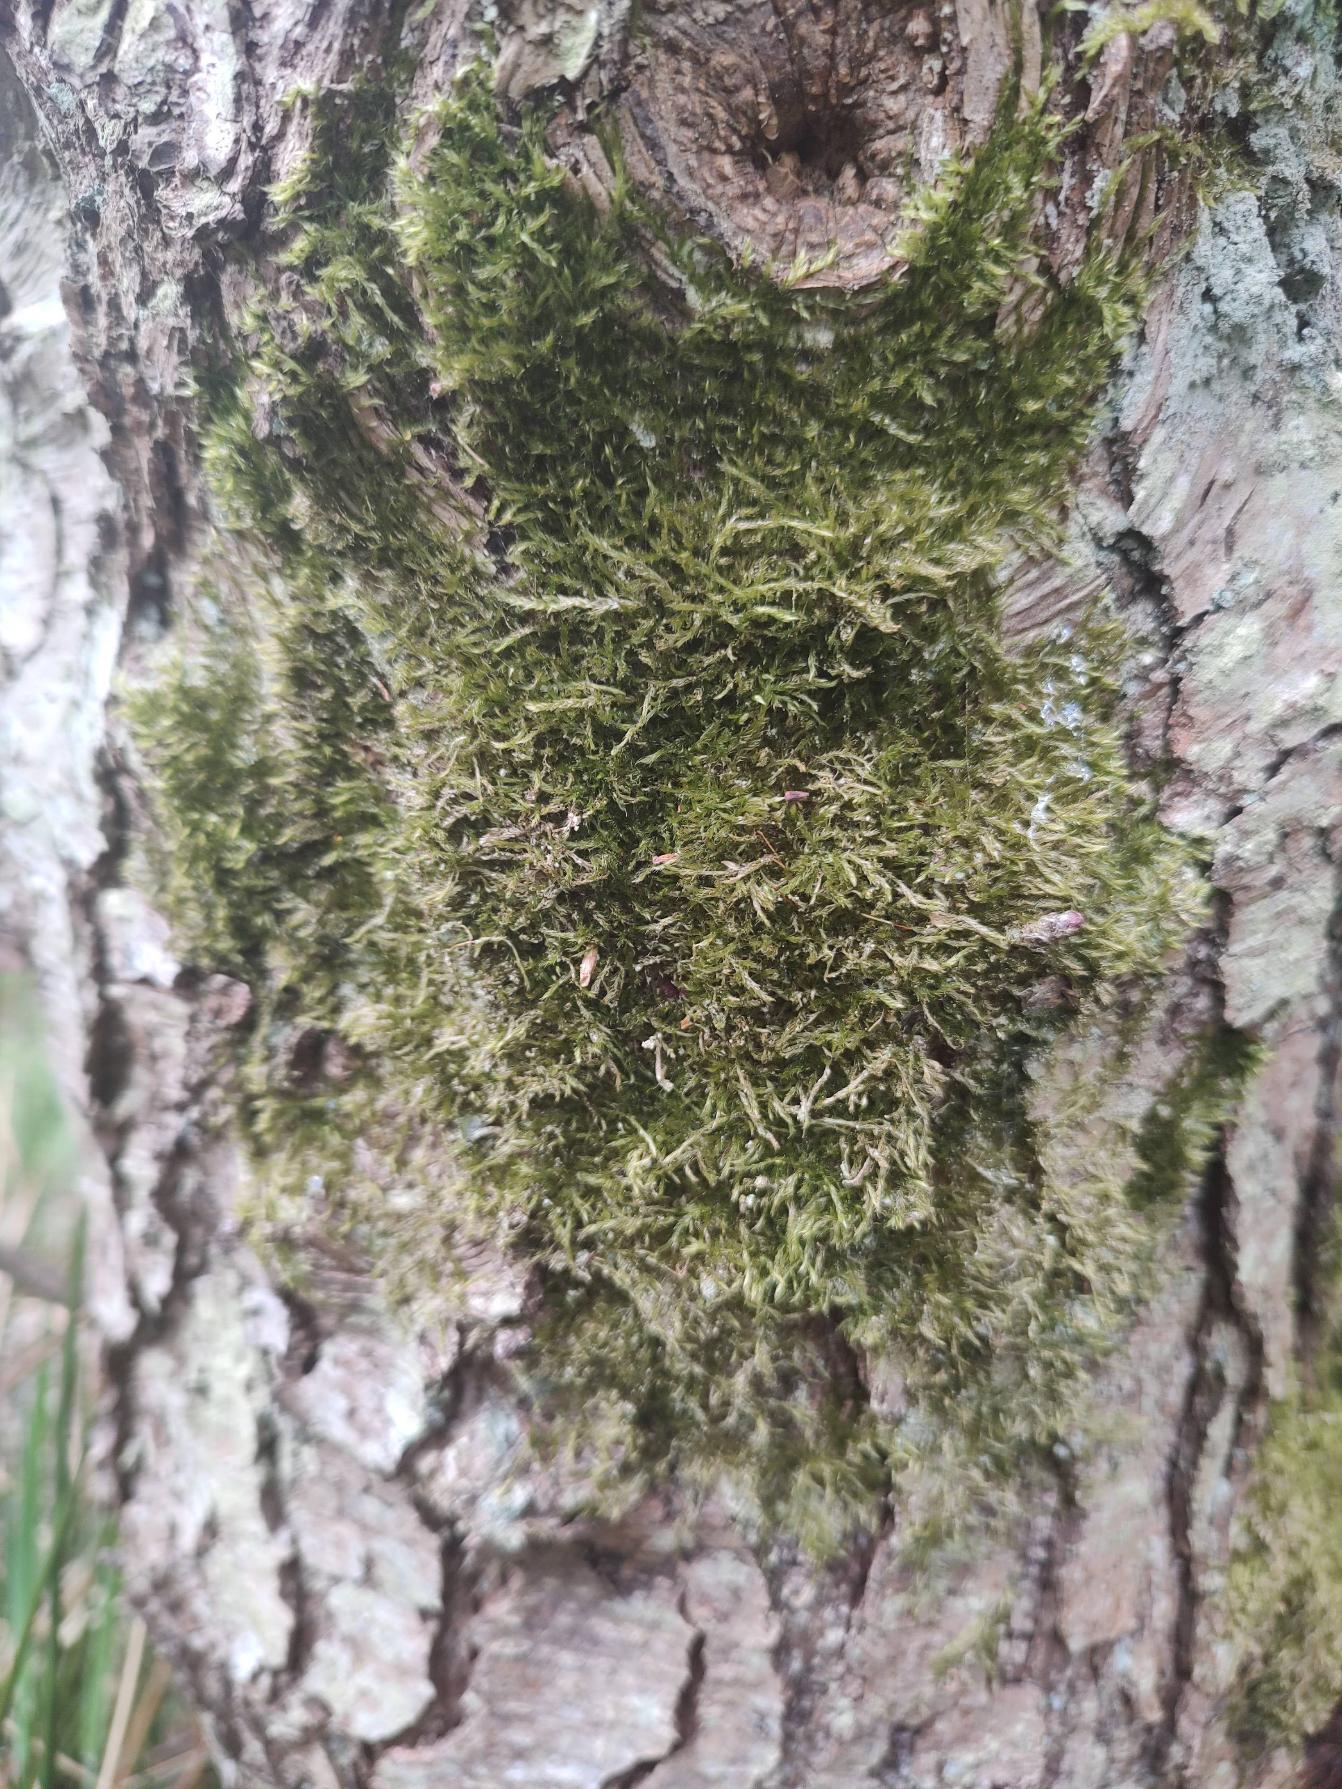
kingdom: Plantae
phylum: Bryophyta
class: Bryopsida
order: Hypnales
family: Hypnaceae
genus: Hypnum
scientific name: Hypnum
